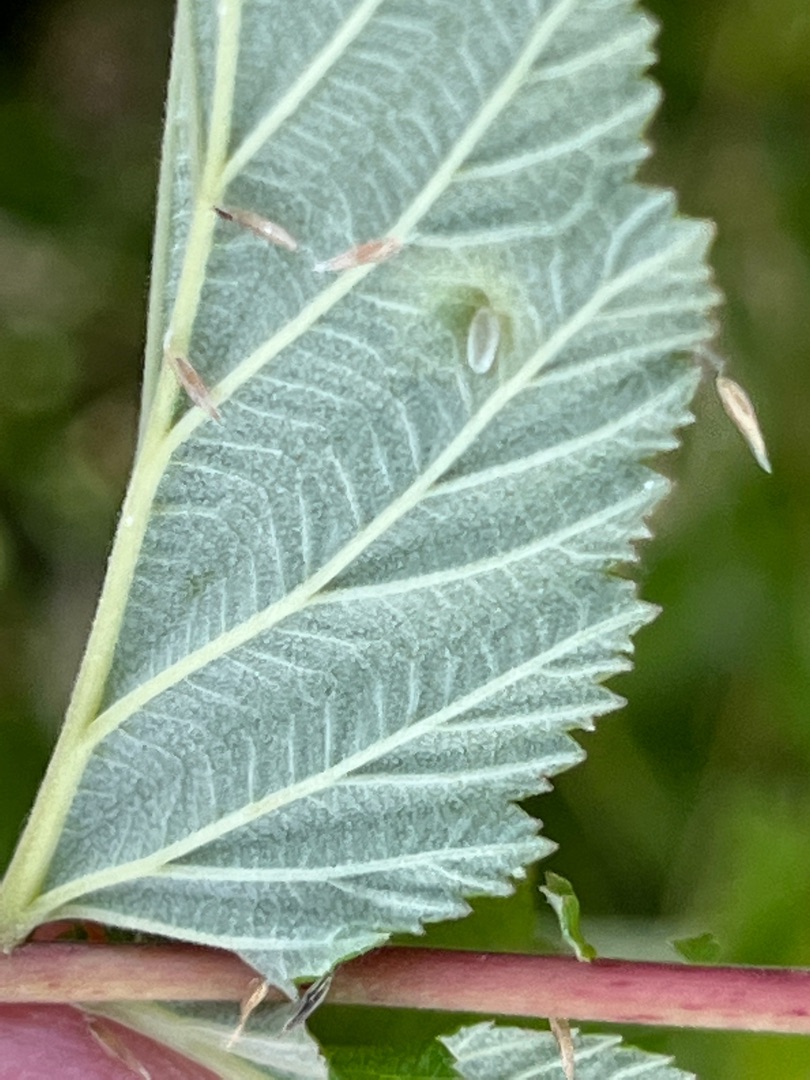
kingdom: Animalia
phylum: Arthropoda
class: Insecta
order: Diptera
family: Cecidomyiidae
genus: Dasineura
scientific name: Dasineura pustulans
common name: Mjødurtblistgalmyg
